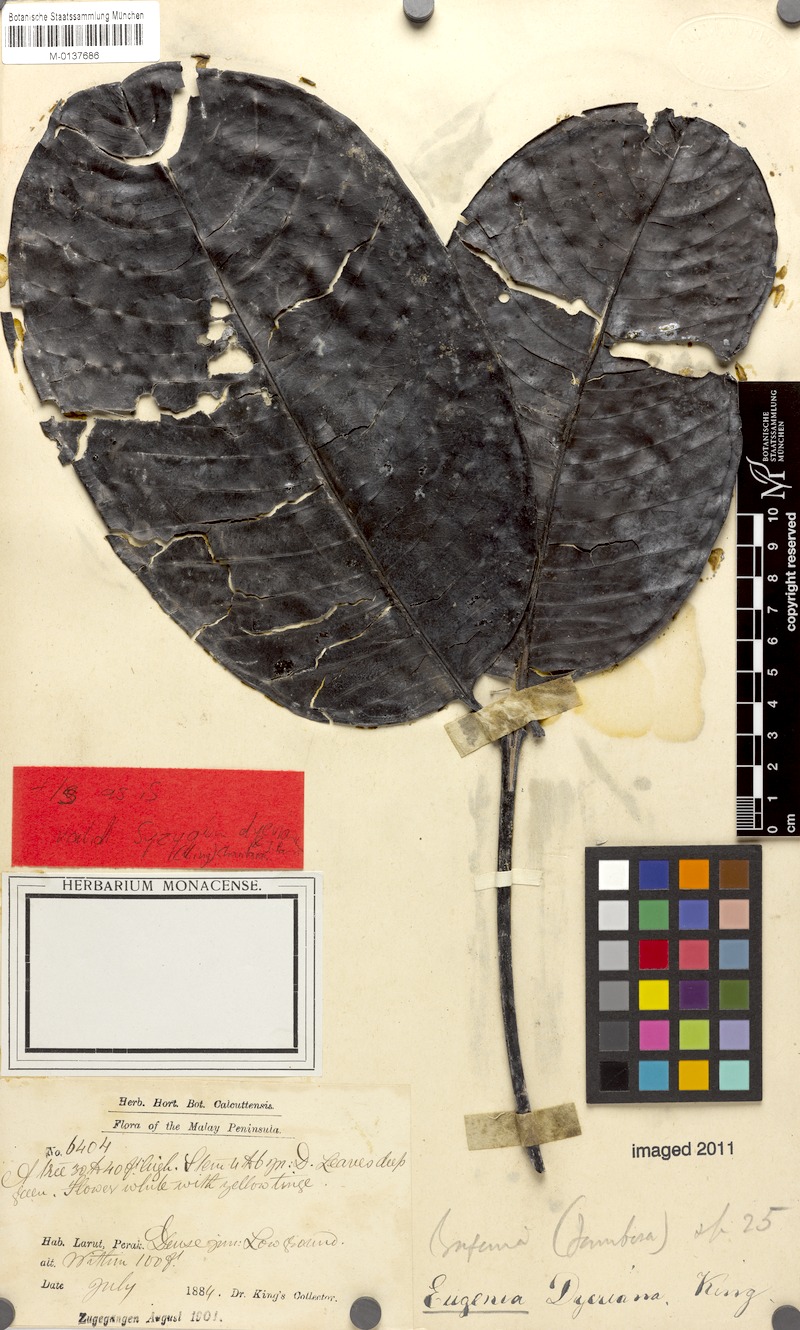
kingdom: Plantae
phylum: Tracheophyta
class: Magnoliopsida
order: Myrtales
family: Myrtaceae
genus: Syzygium
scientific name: Syzygium duthieanum
